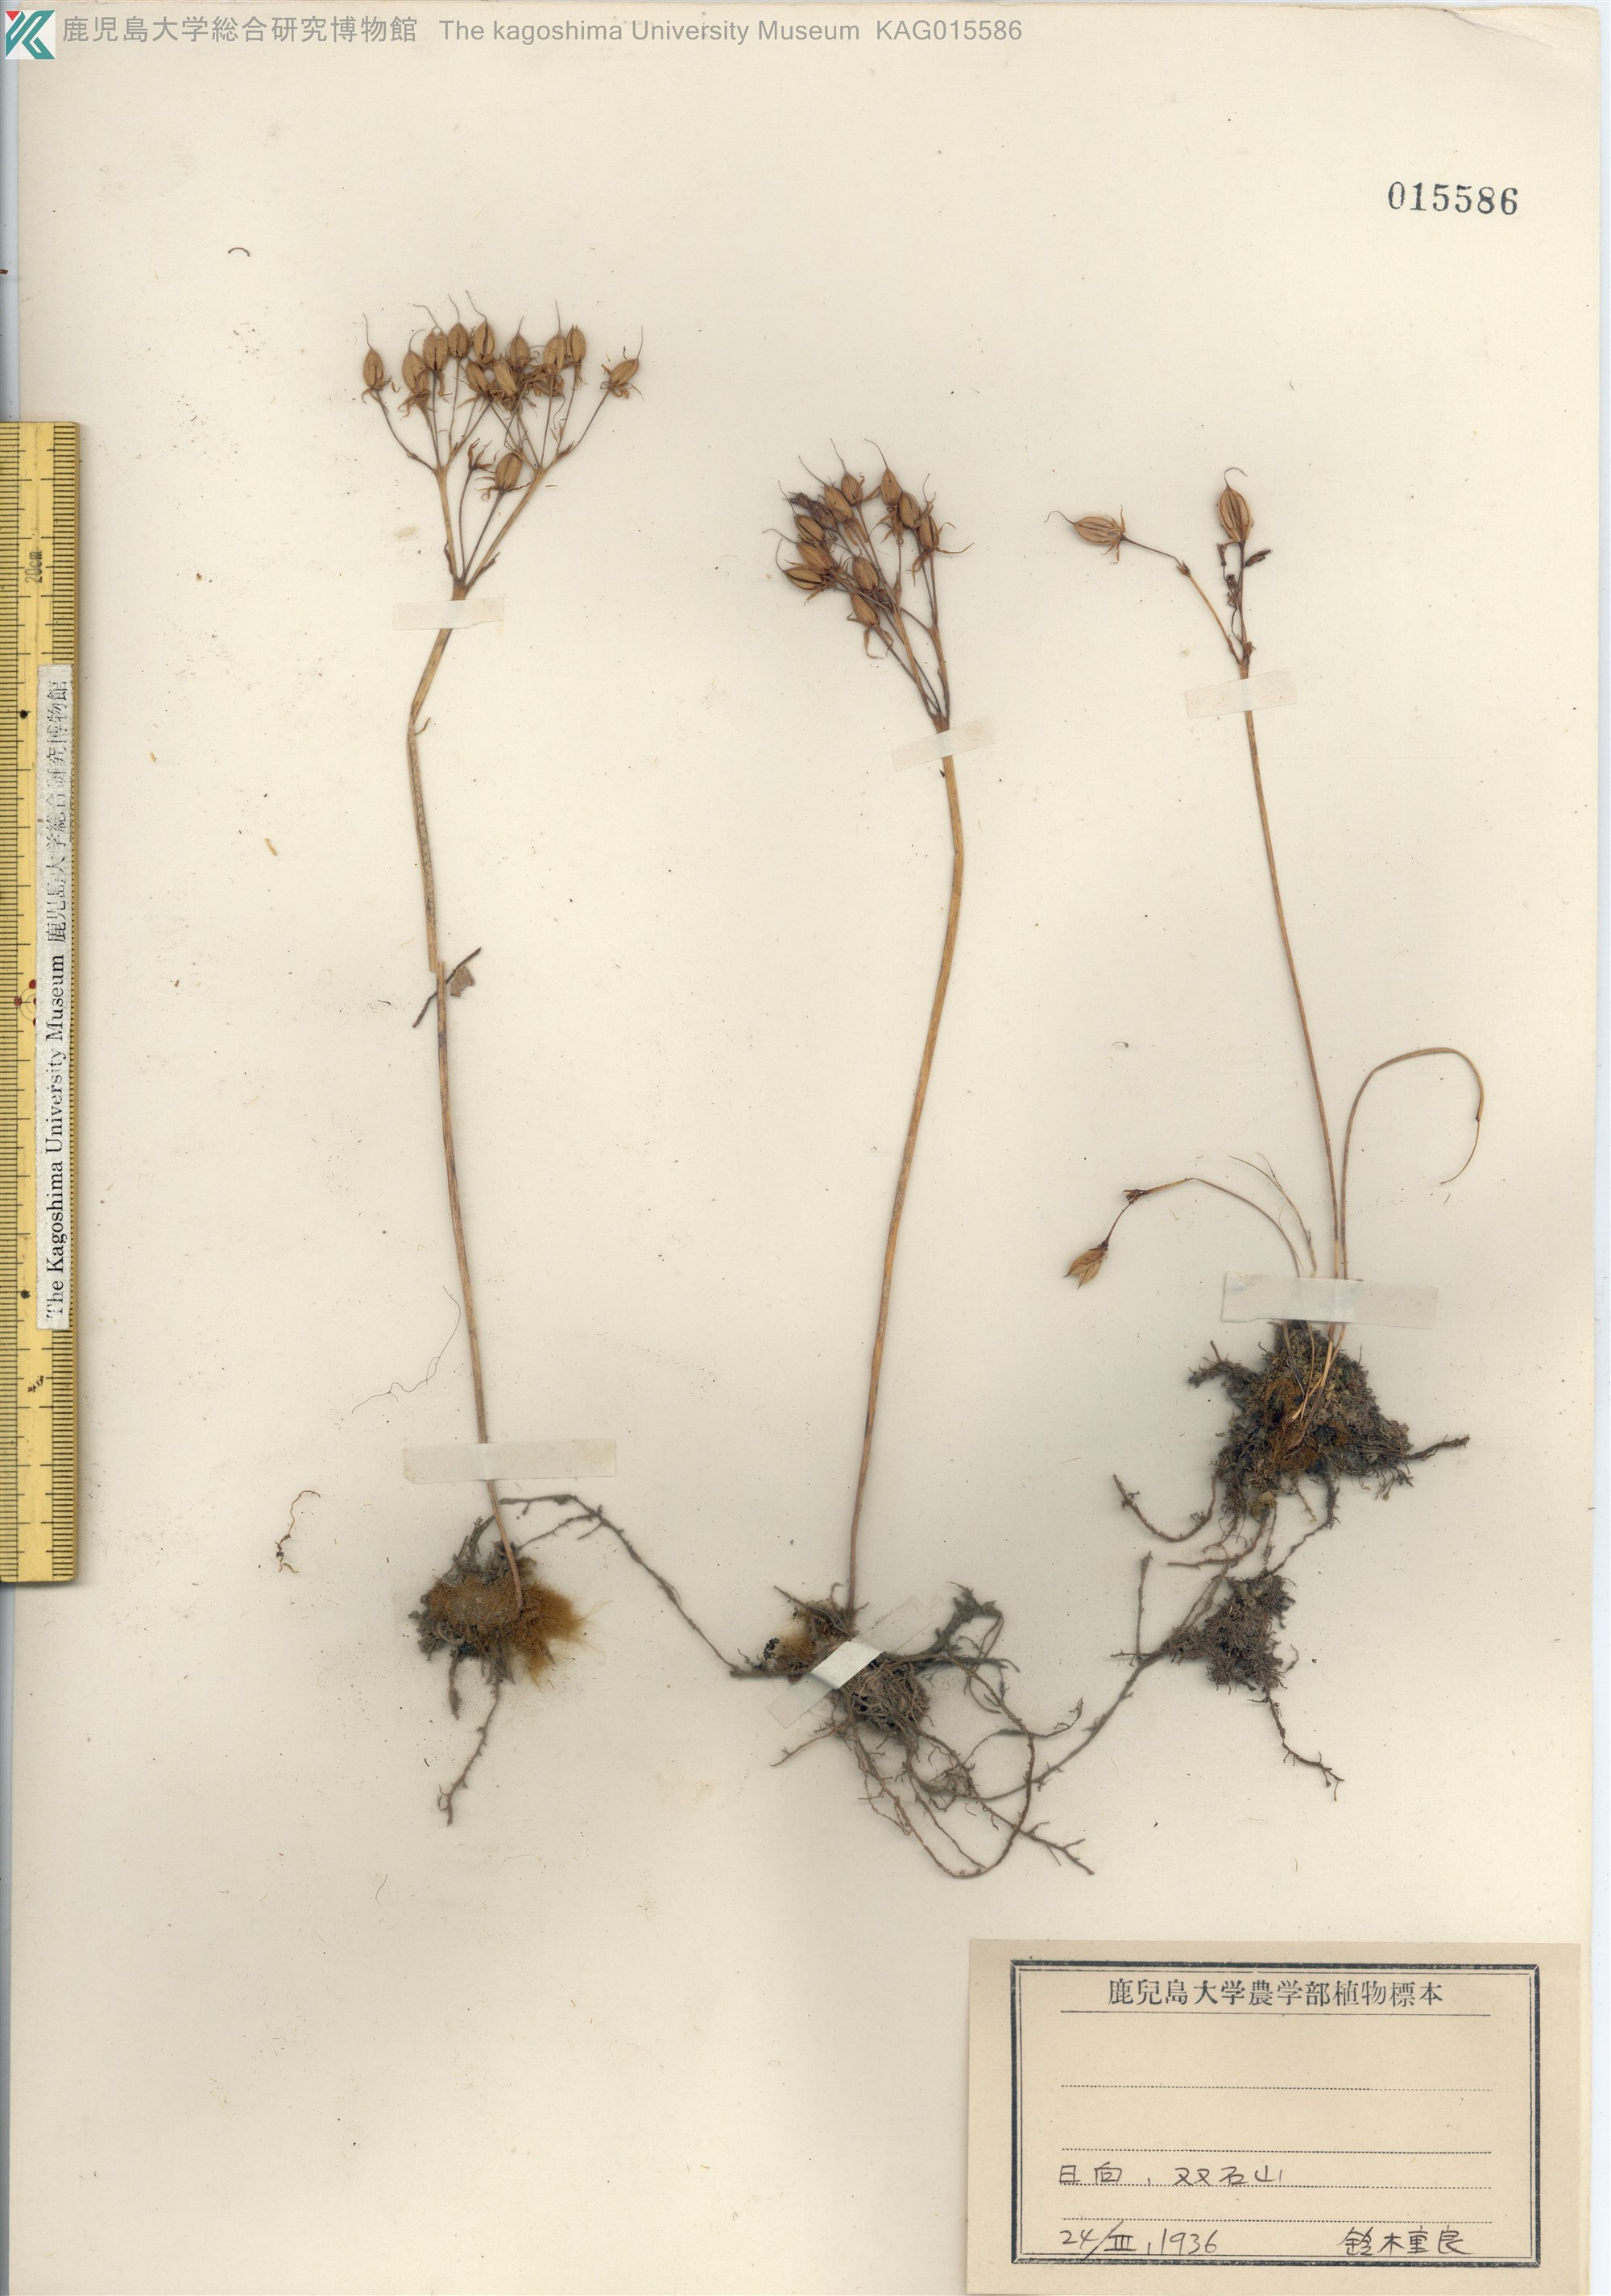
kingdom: Plantae
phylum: Tracheophyta
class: Magnoliopsida
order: Lamiales
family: Gesneriaceae
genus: Conandron
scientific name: Conandron ramondioides
